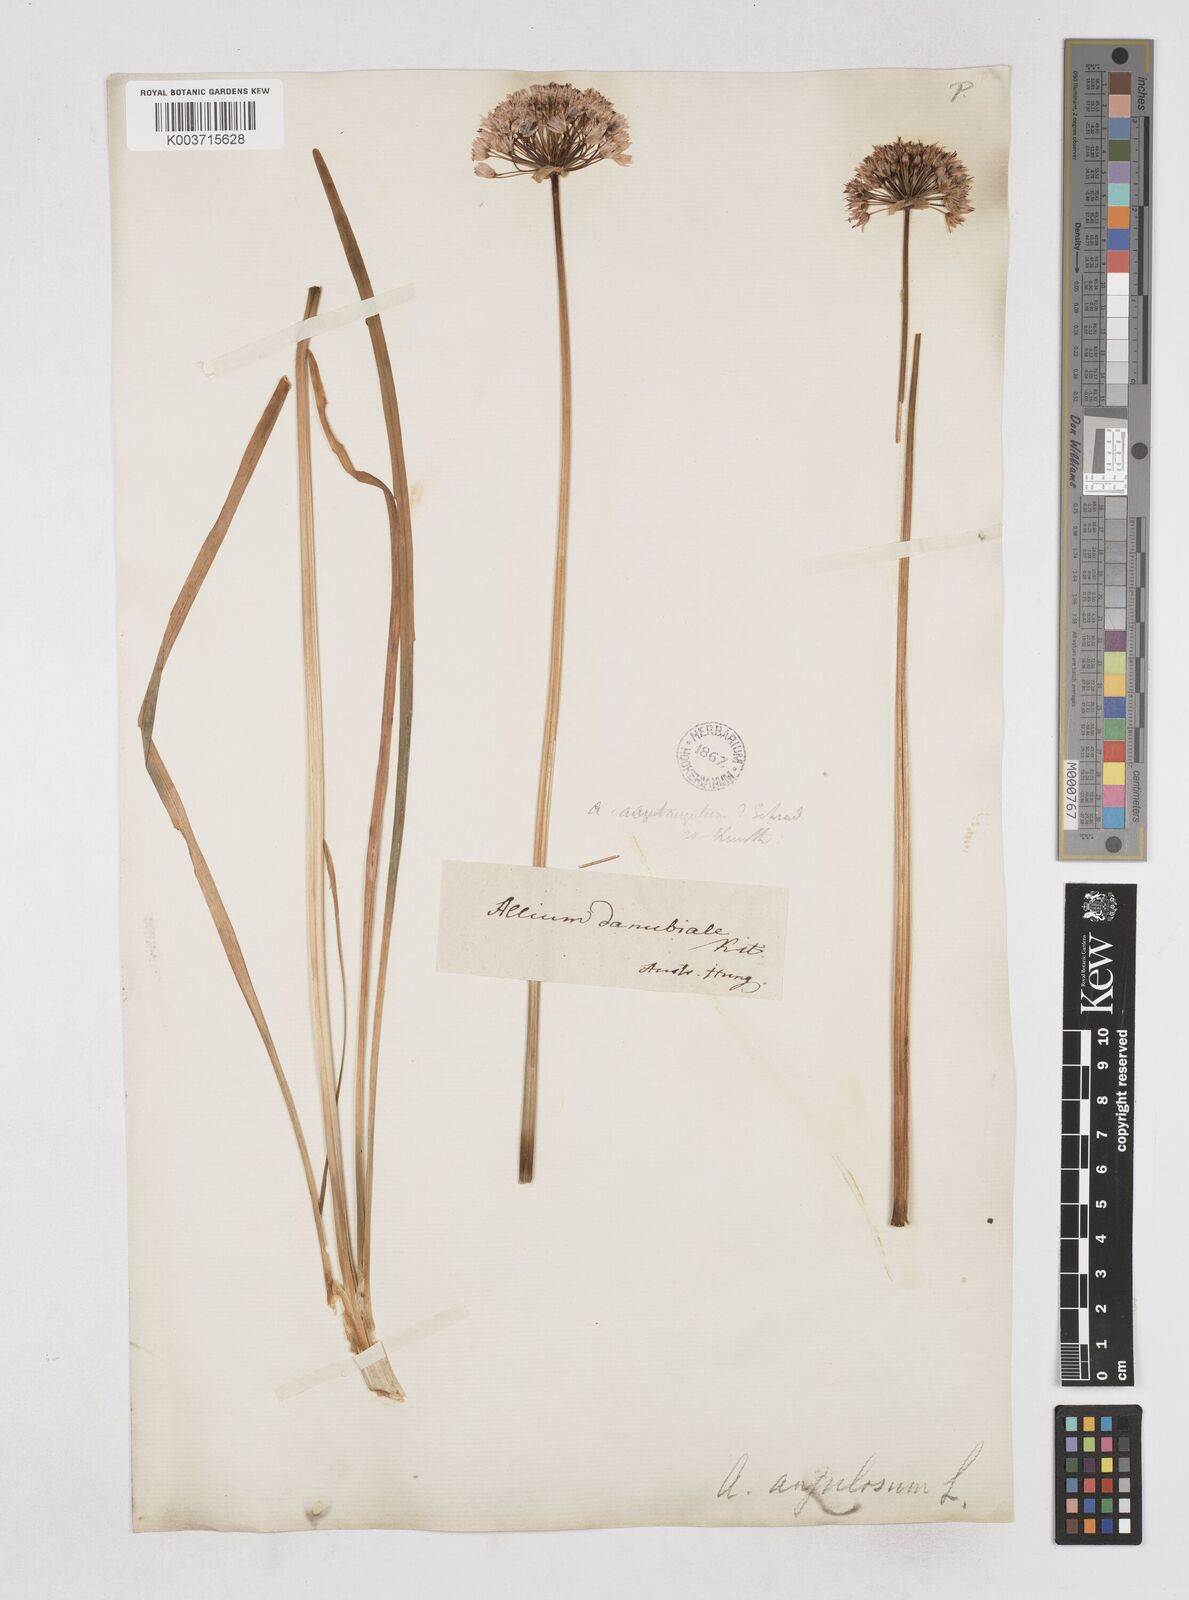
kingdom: Plantae
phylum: Tracheophyta
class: Liliopsida
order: Asparagales
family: Amaryllidaceae
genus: Allium
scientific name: Allium angulosum
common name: Mouse garlic
